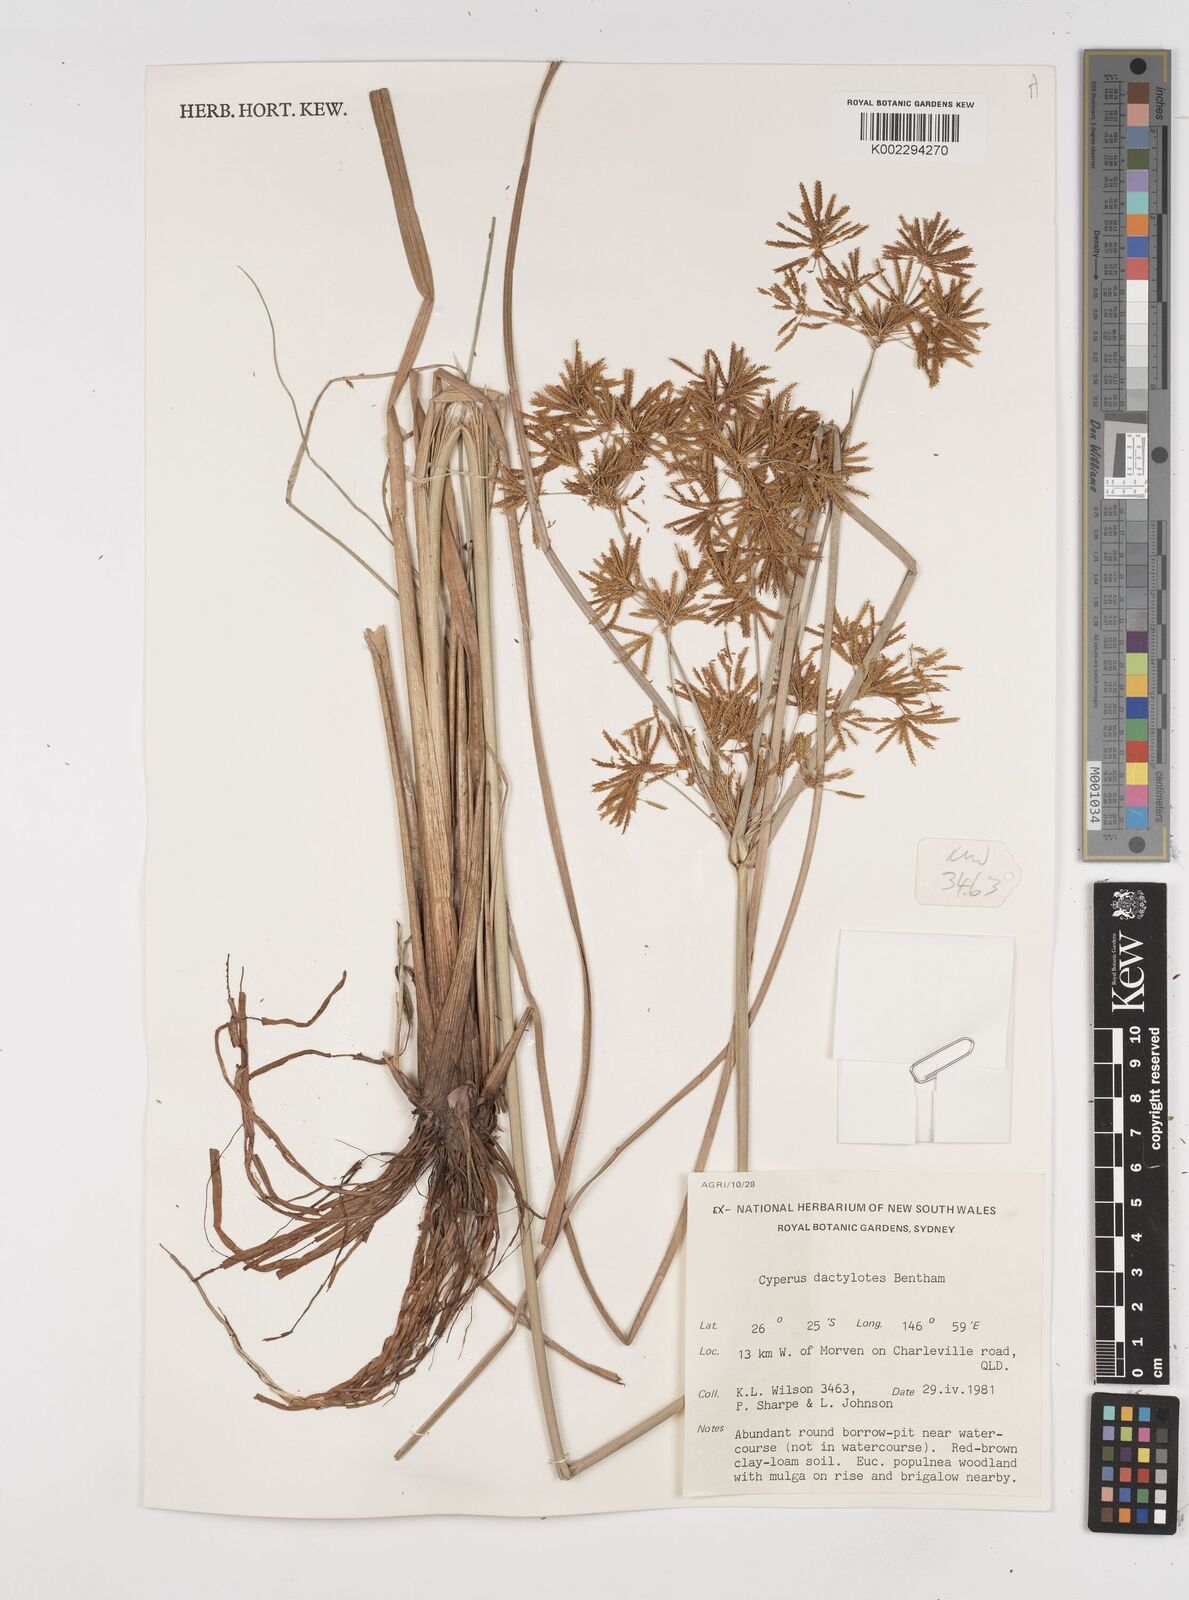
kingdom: Plantae
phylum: Tracheophyta
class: Liliopsida
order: Poales
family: Cyperaceae
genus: Cyperus
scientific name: Cyperus dactylotes
